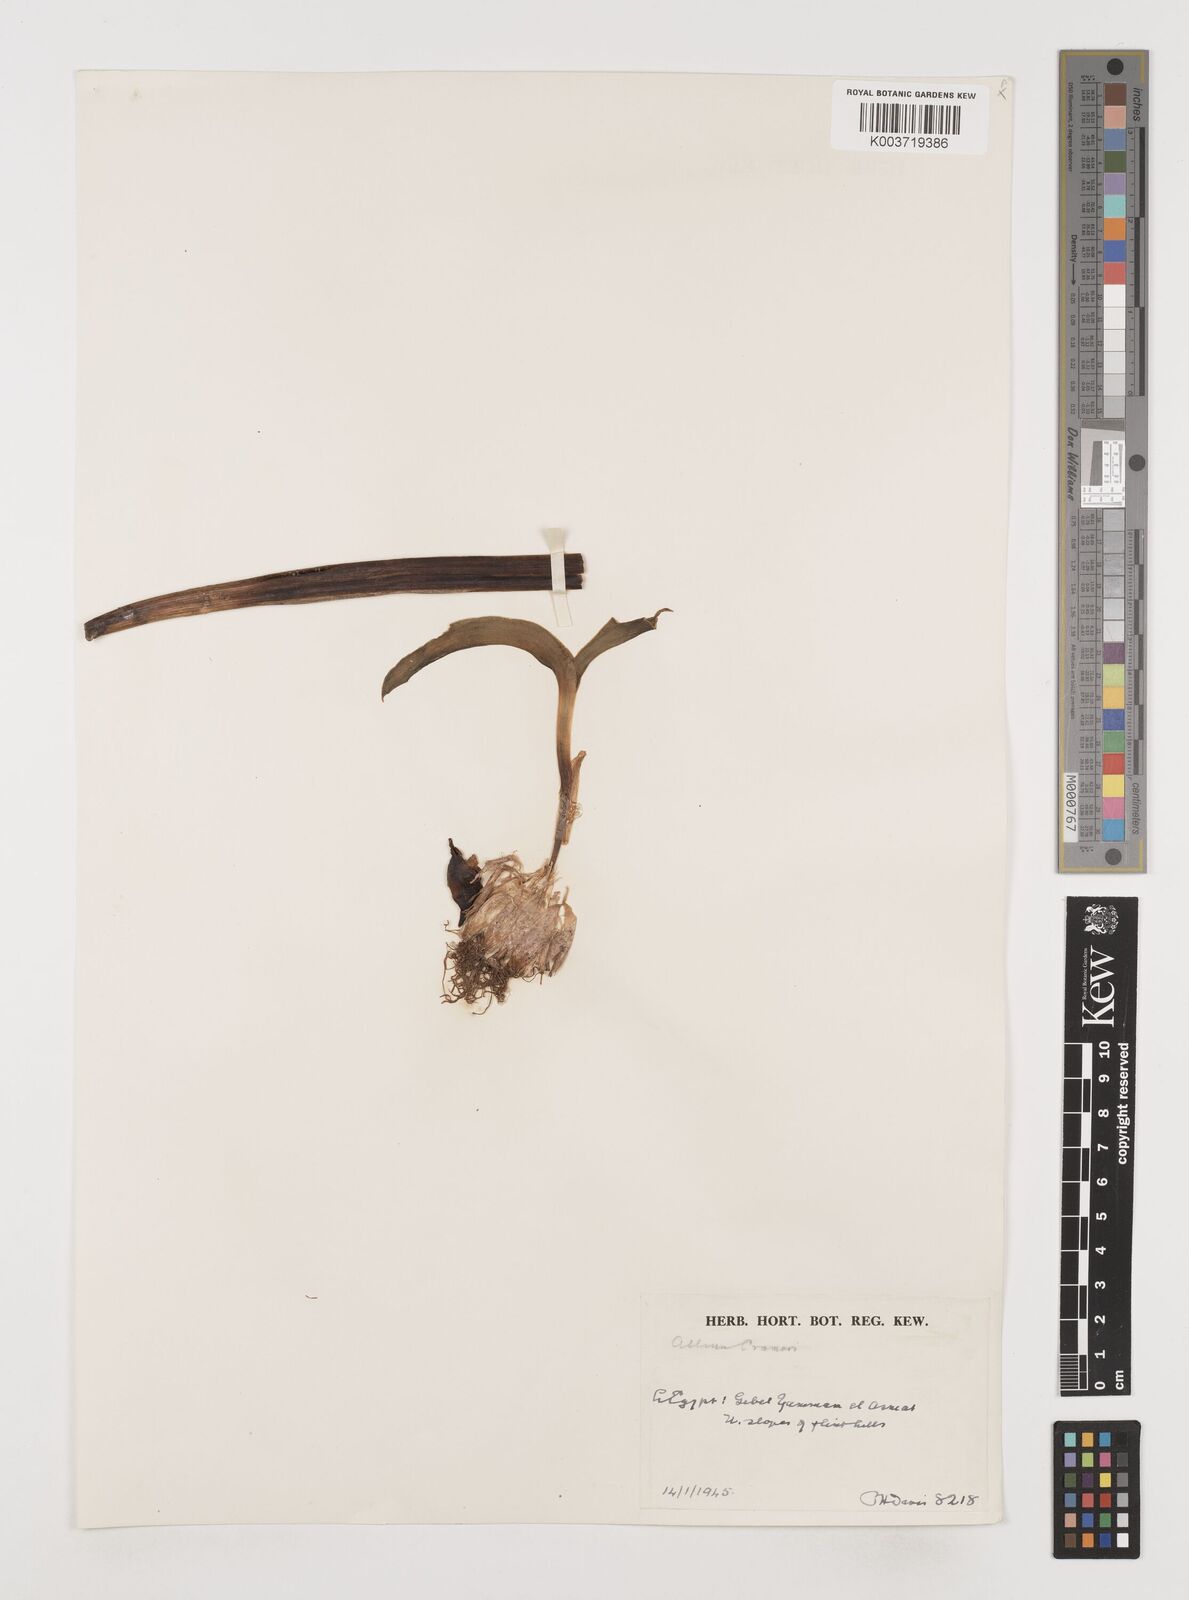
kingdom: Plantae
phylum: Tracheophyta
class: Liliopsida
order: Asparagales
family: Amaryllidaceae
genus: Allium
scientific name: Allium crameri
